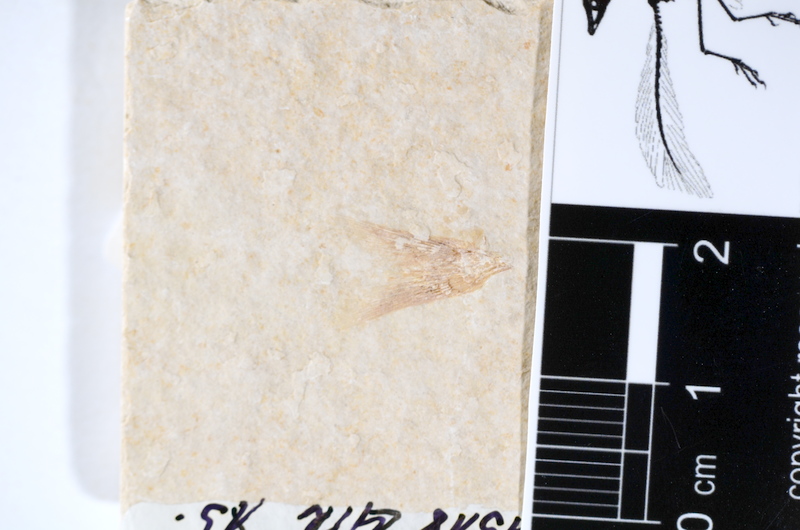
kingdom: Animalia
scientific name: Animalia
